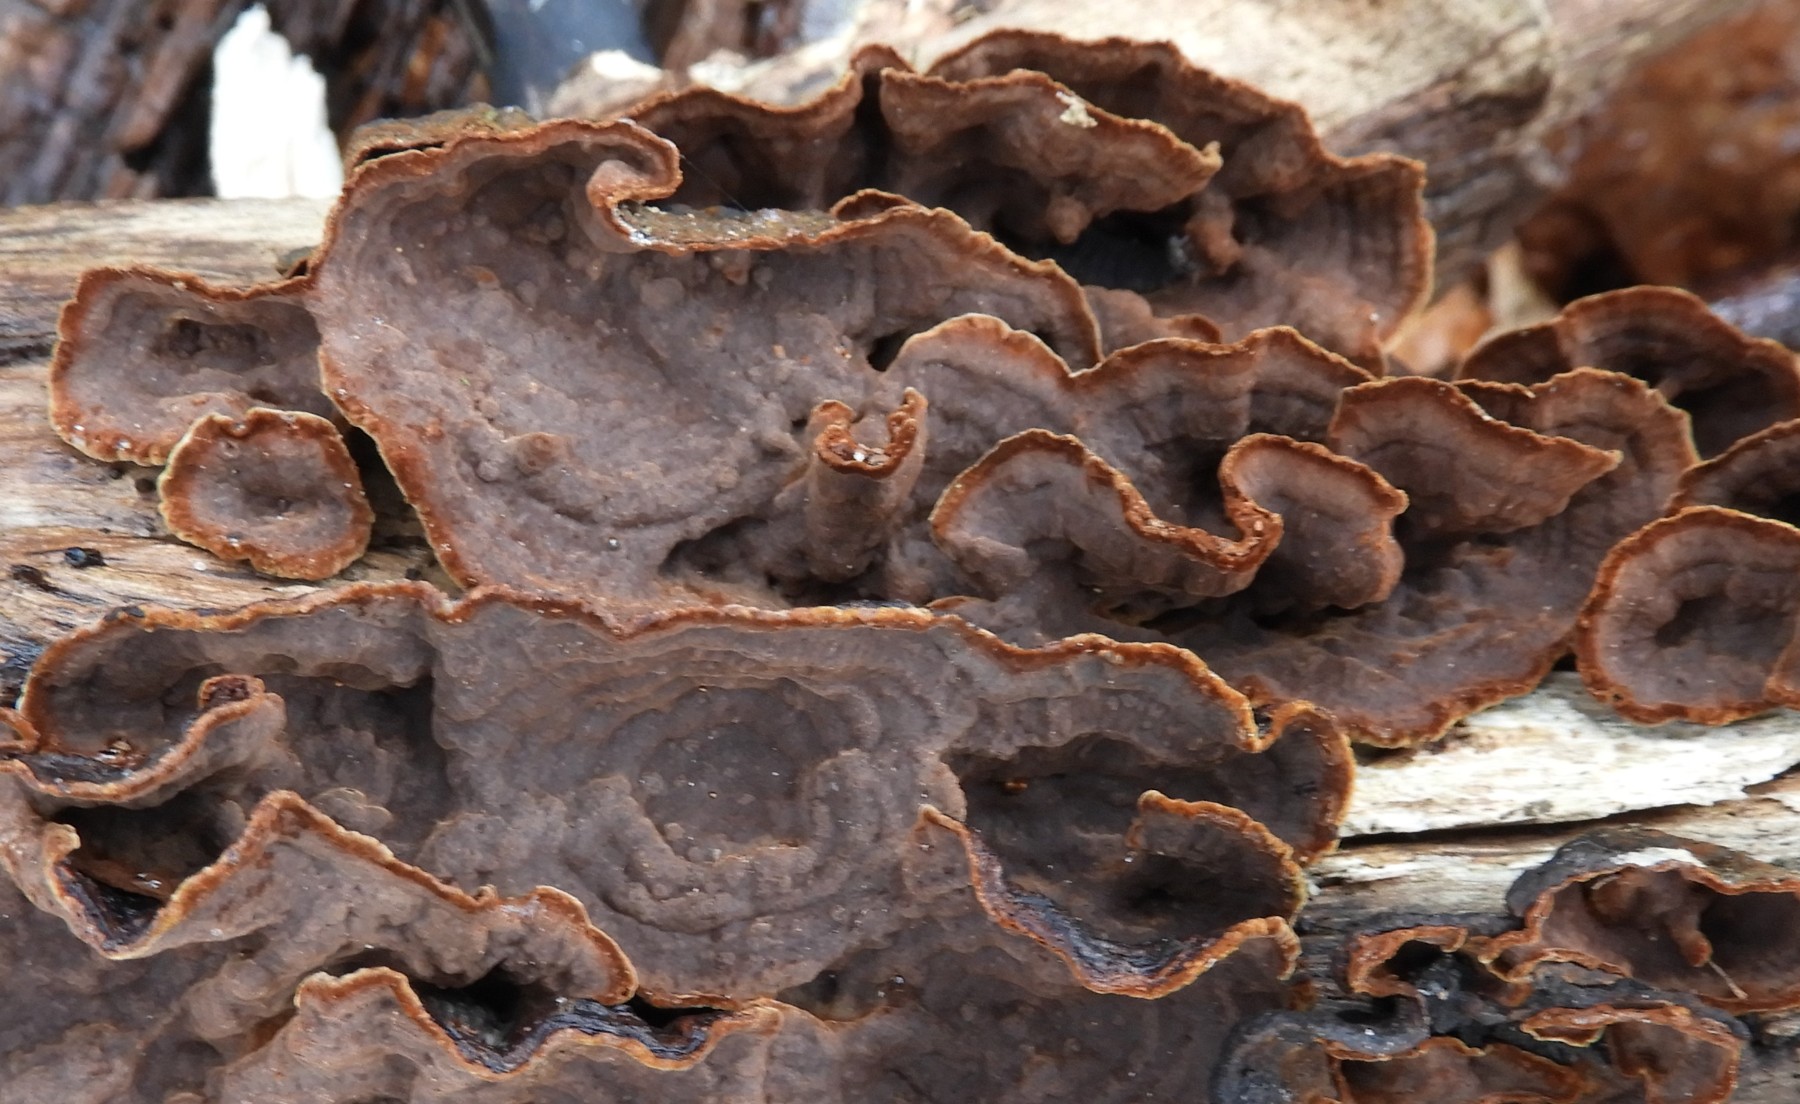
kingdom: Fungi
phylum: Basidiomycota
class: Agaricomycetes
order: Hymenochaetales
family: Hymenochaetaceae
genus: Hymenochaete
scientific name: Hymenochaete rubiginosa
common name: stiv ruslædersvamp
